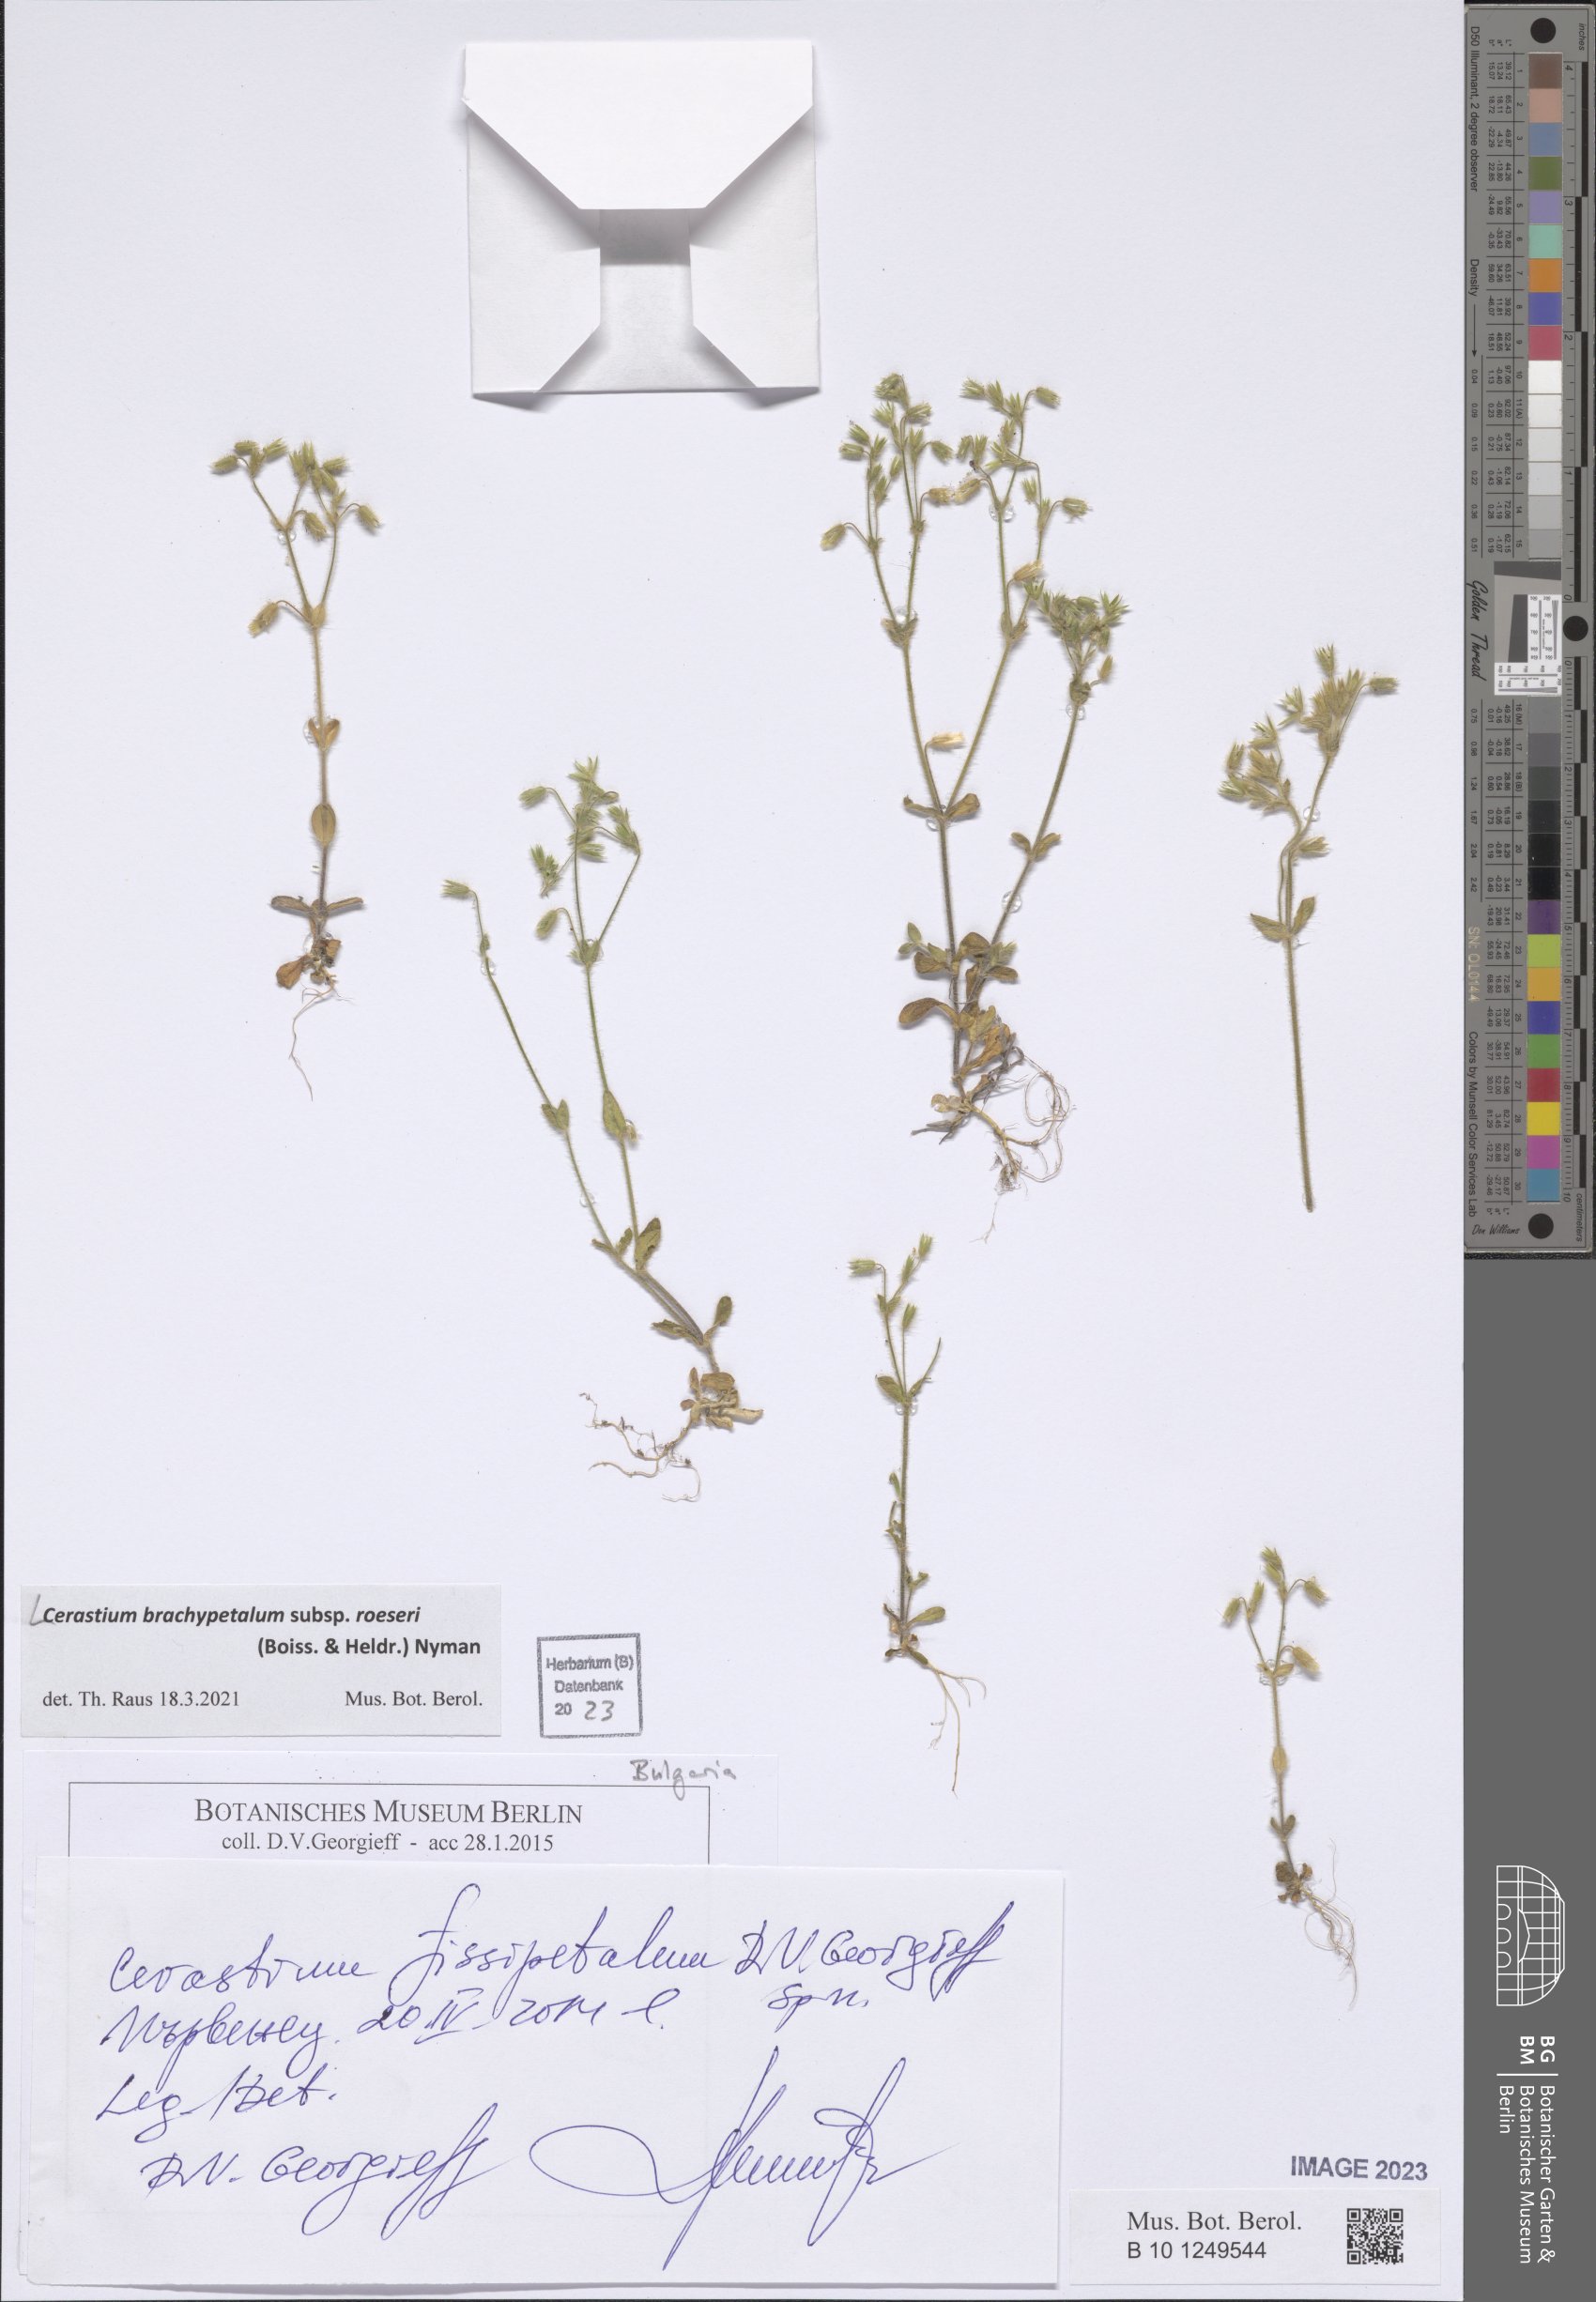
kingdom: Plantae
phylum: Tracheophyta
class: Magnoliopsida
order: Caryophyllales
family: Caryophyllaceae
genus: Cerastium
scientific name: Cerastium brachypetalum
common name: Grey mouse-ear
